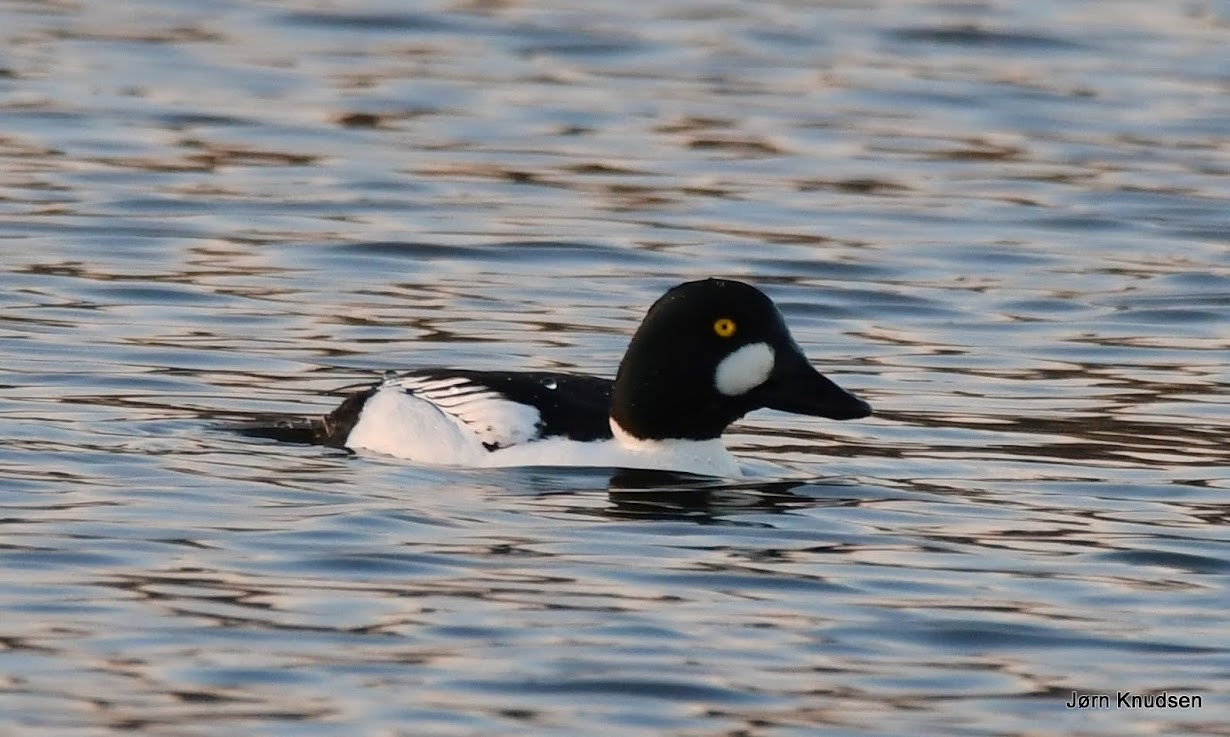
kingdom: Animalia
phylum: Chordata
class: Aves
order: Anseriformes
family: Anatidae
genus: Bucephala
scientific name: Bucephala clangula
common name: Hvinand
